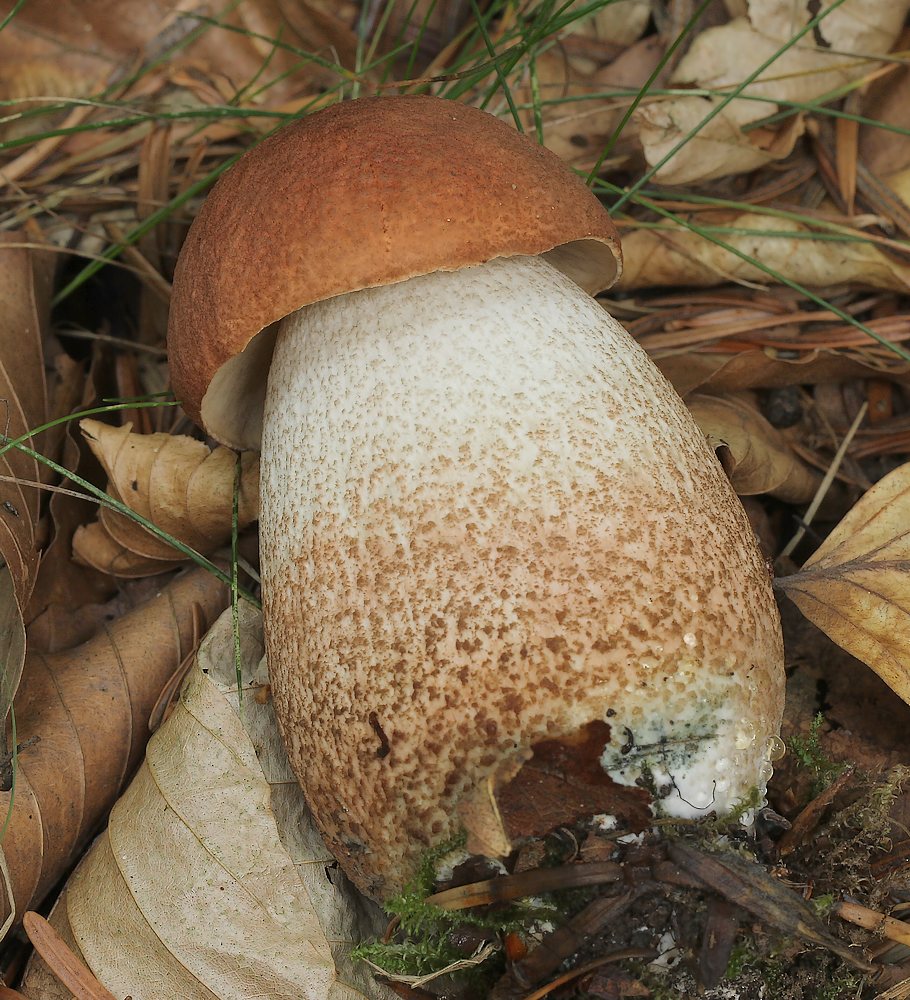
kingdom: Fungi
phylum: Basidiomycota
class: Agaricomycetes
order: Boletales
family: Boletaceae
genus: Leccinum
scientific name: Leccinum aurantiacum
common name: rustrød skælrørhat
